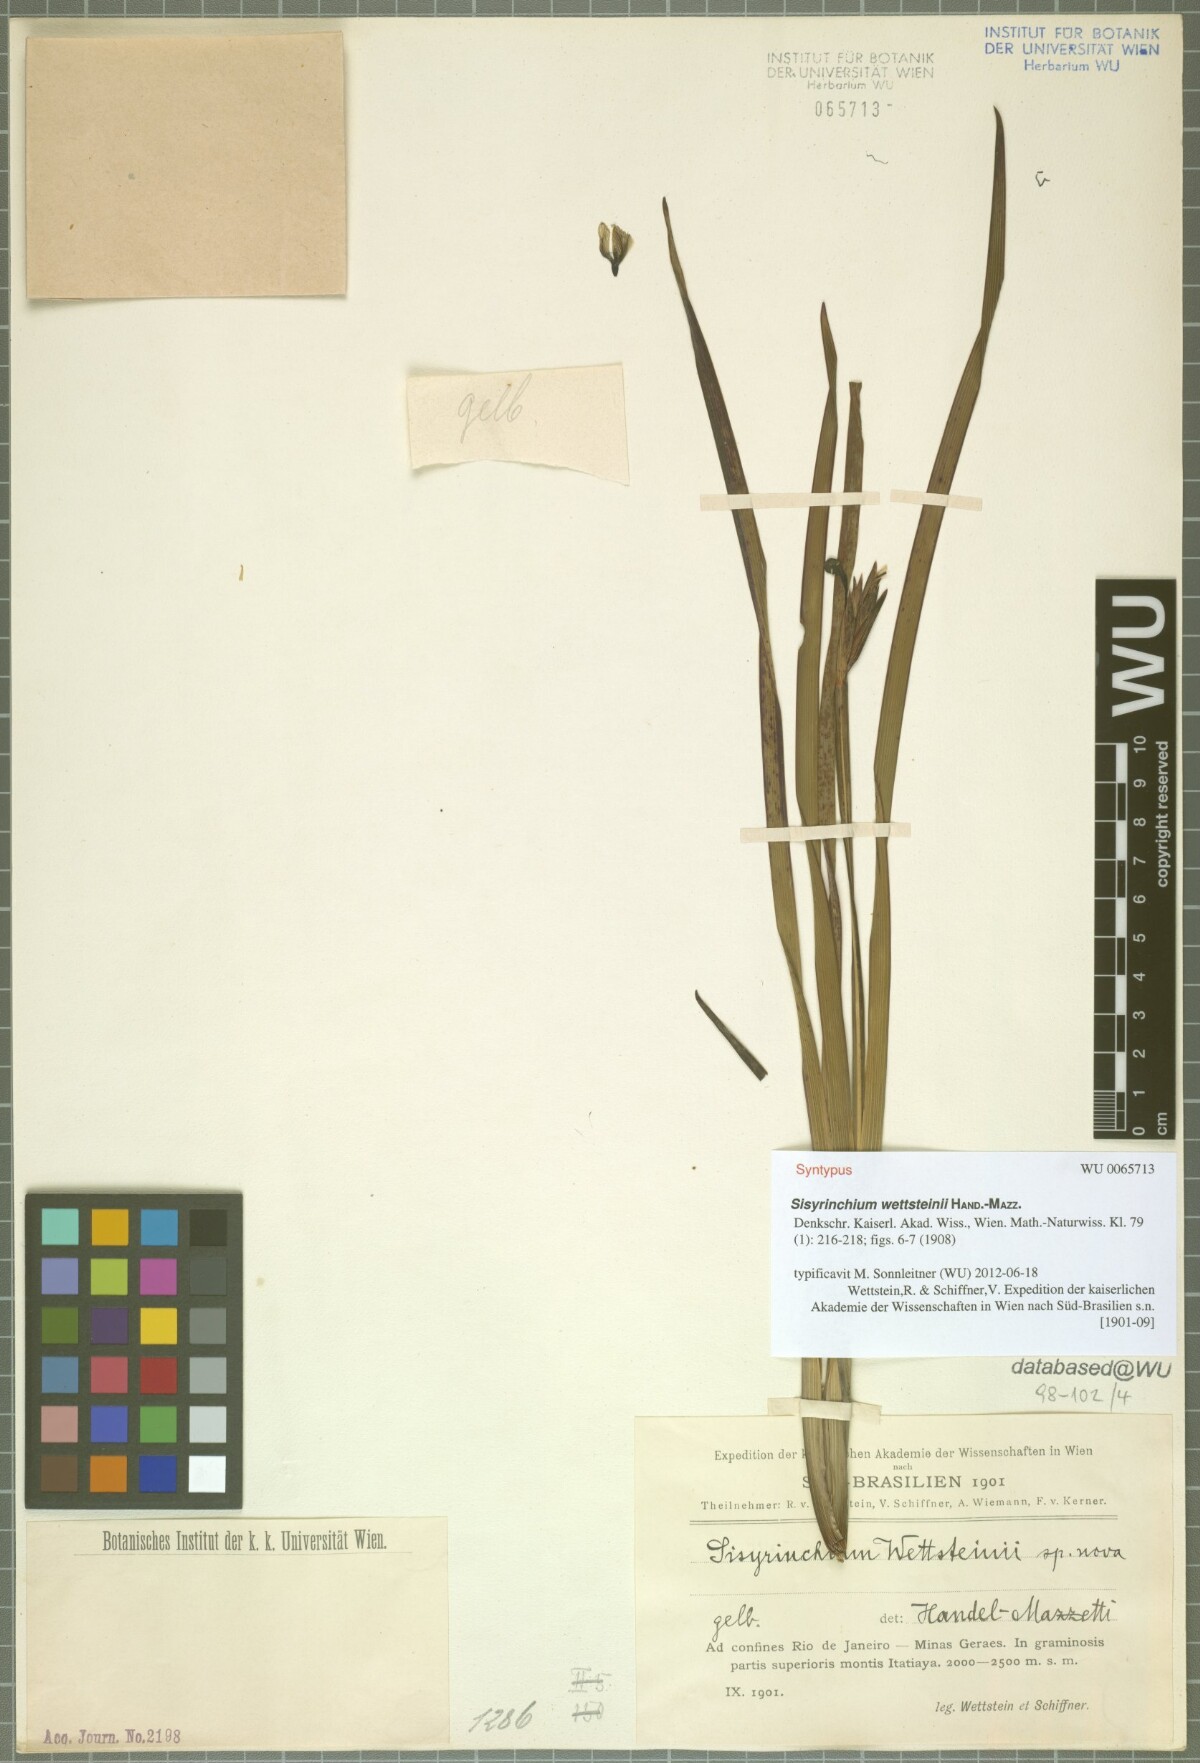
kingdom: Plantae
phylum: Tracheophyta
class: Liliopsida
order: Asparagales
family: Iridaceae
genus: Sisyrinchium
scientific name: Sisyrinchium wettsteinii
